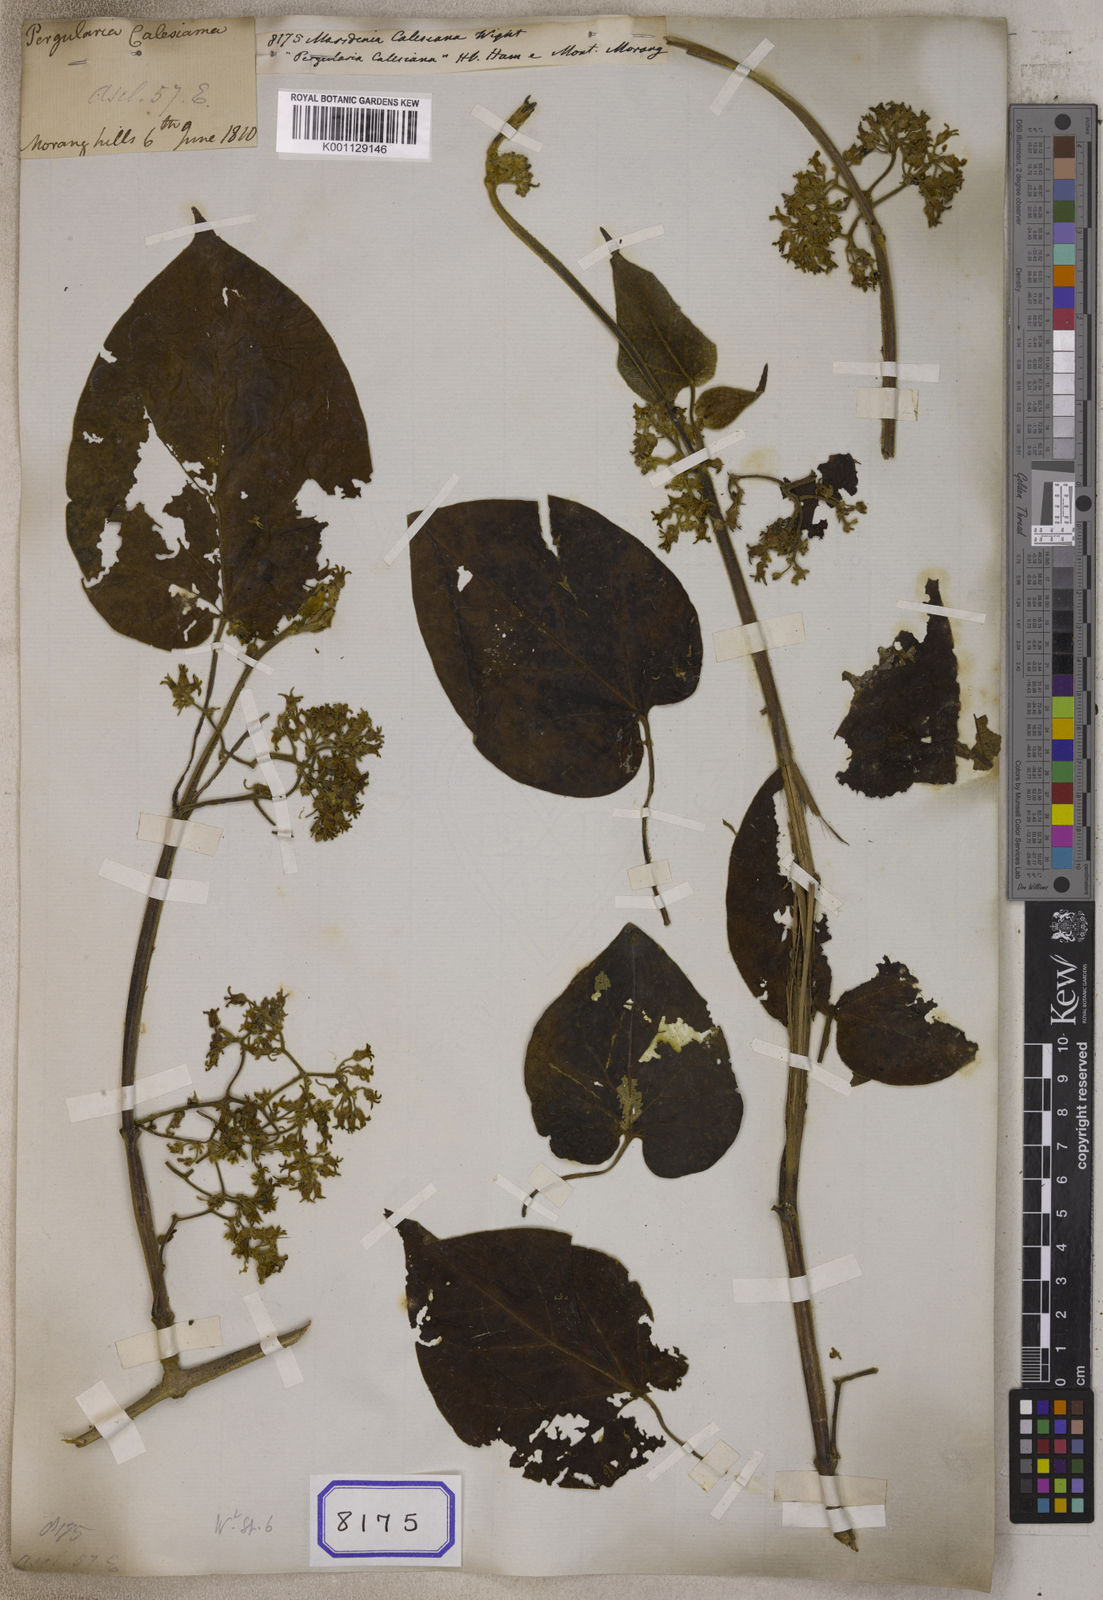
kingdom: Plantae
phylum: Tracheophyta
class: Magnoliopsida
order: Gentianales
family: Apocynaceae
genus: Gongronemopsis
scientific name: Gongronemopsis calesiana
